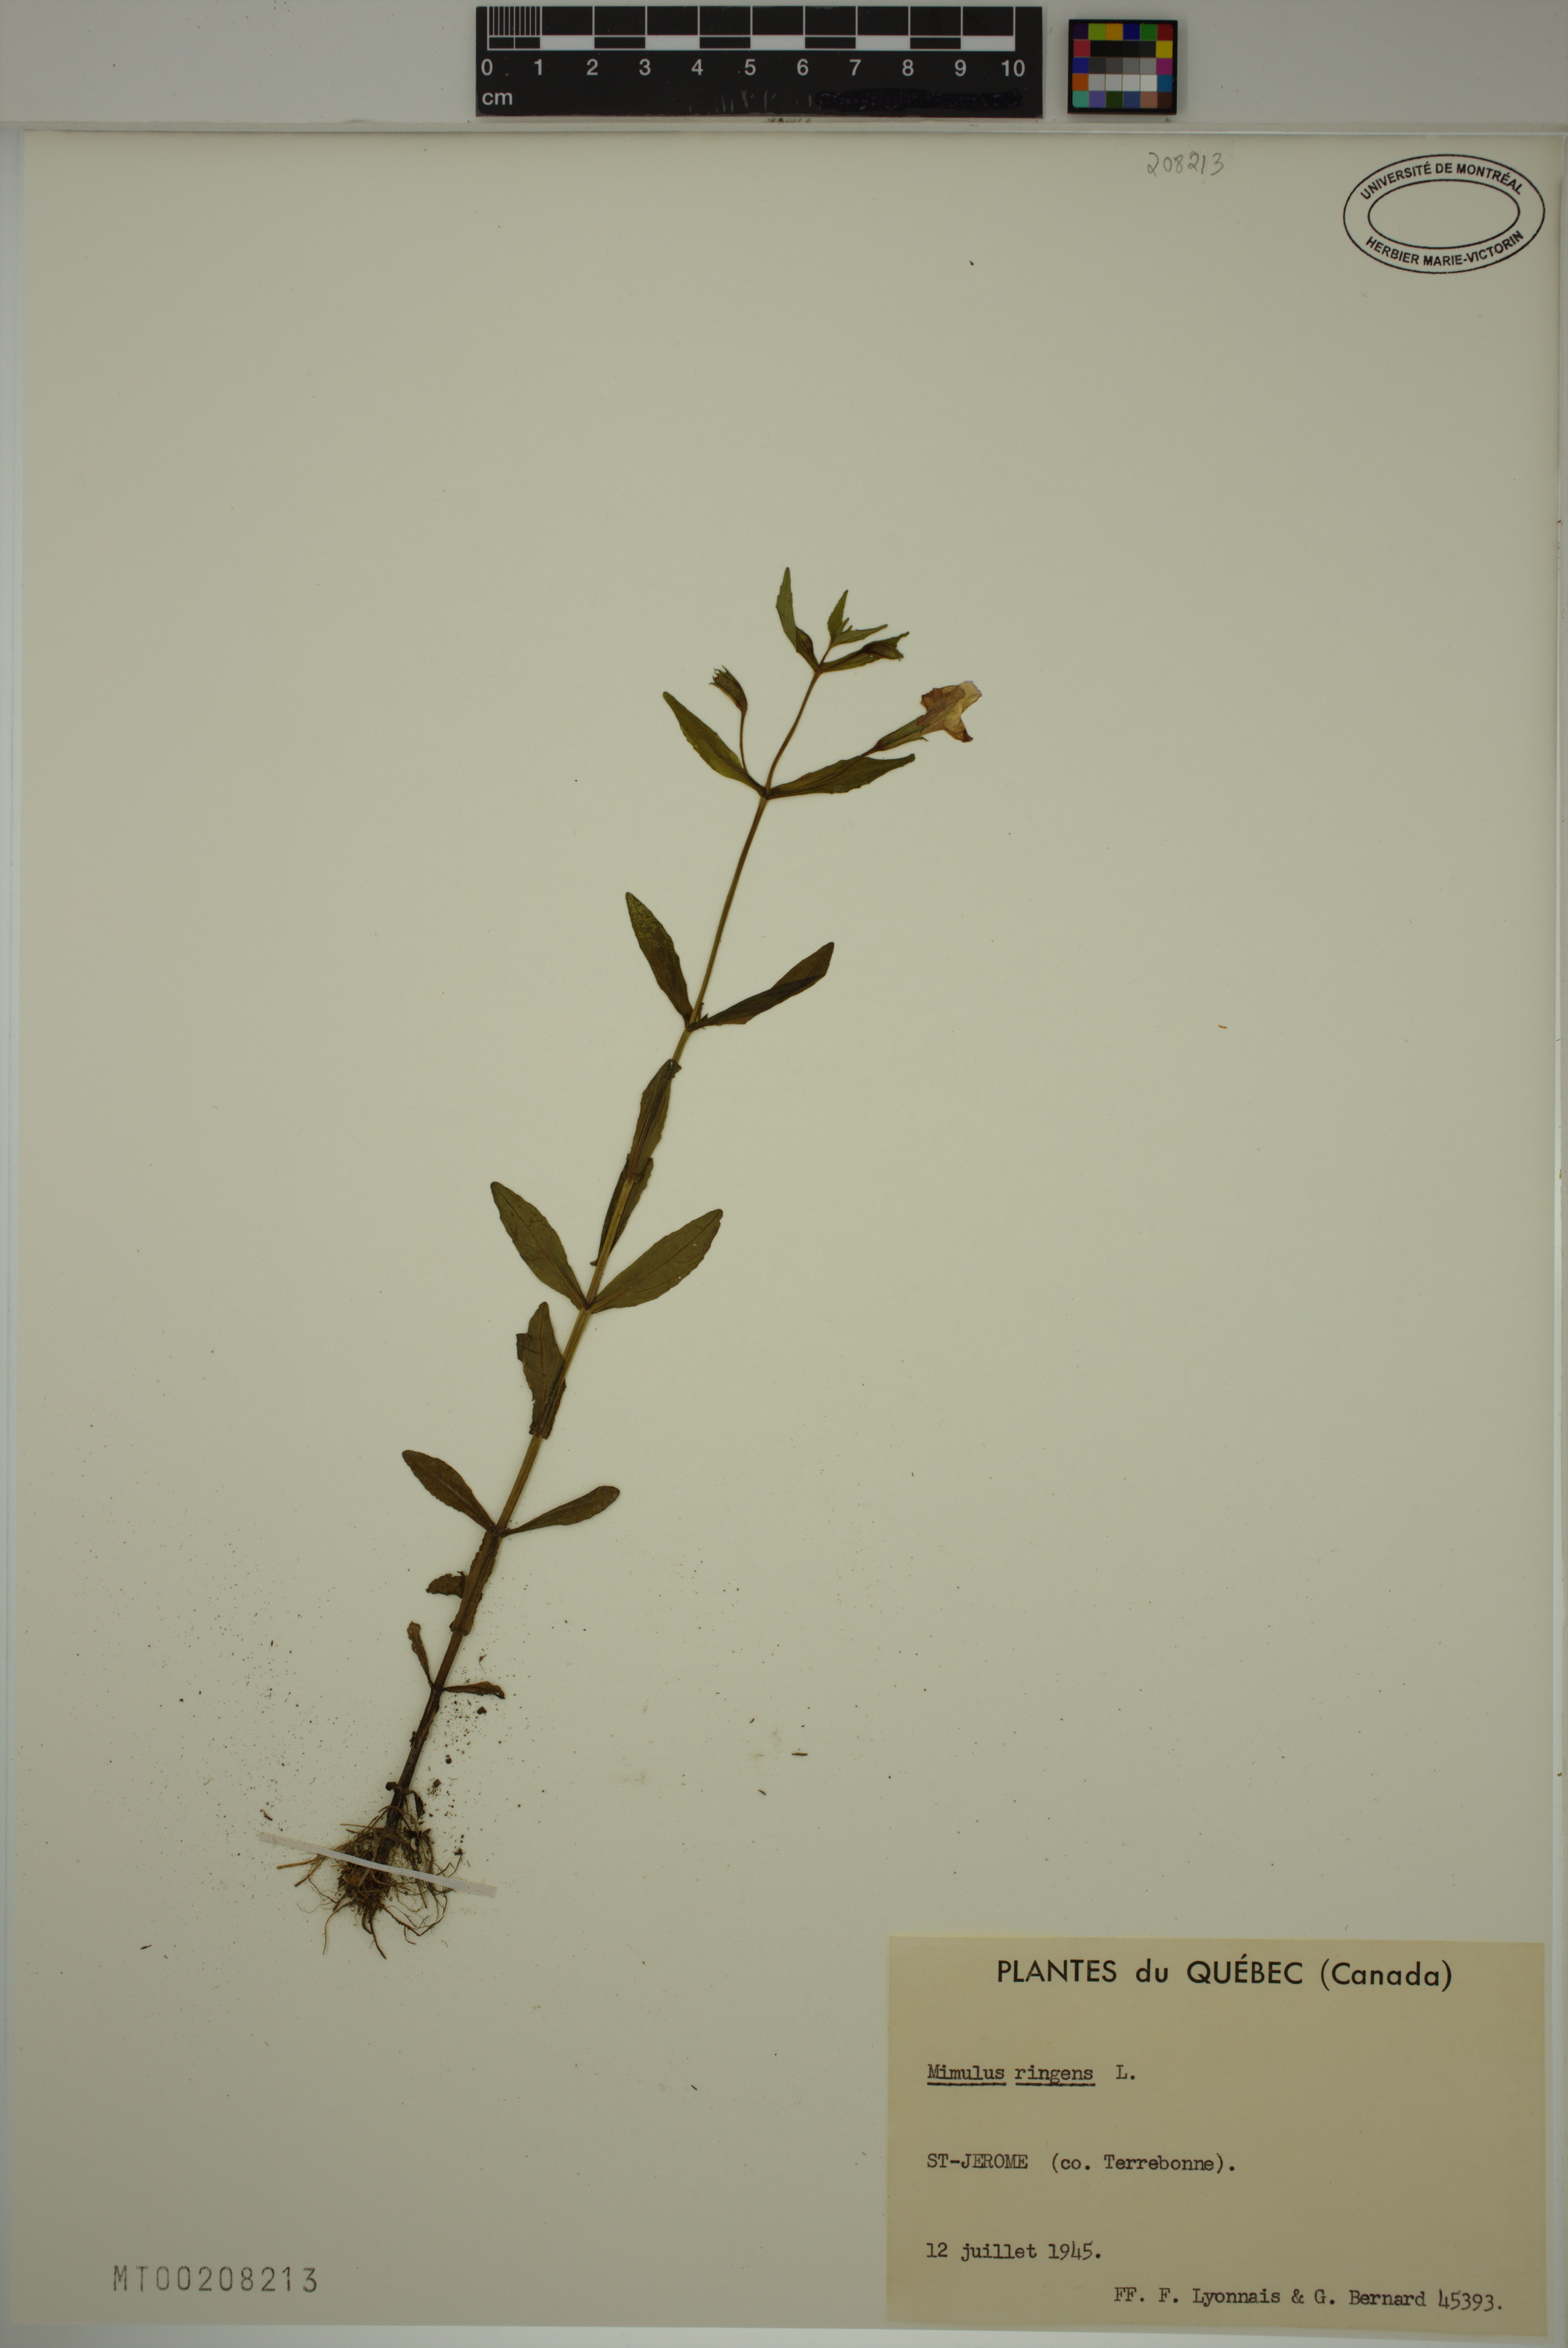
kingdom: Plantae
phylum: Tracheophyta
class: Magnoliopsida
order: Lamiales
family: Phrymaceae
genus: Mimulus
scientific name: Mimulus ringens
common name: Allegheny monkeyflower
